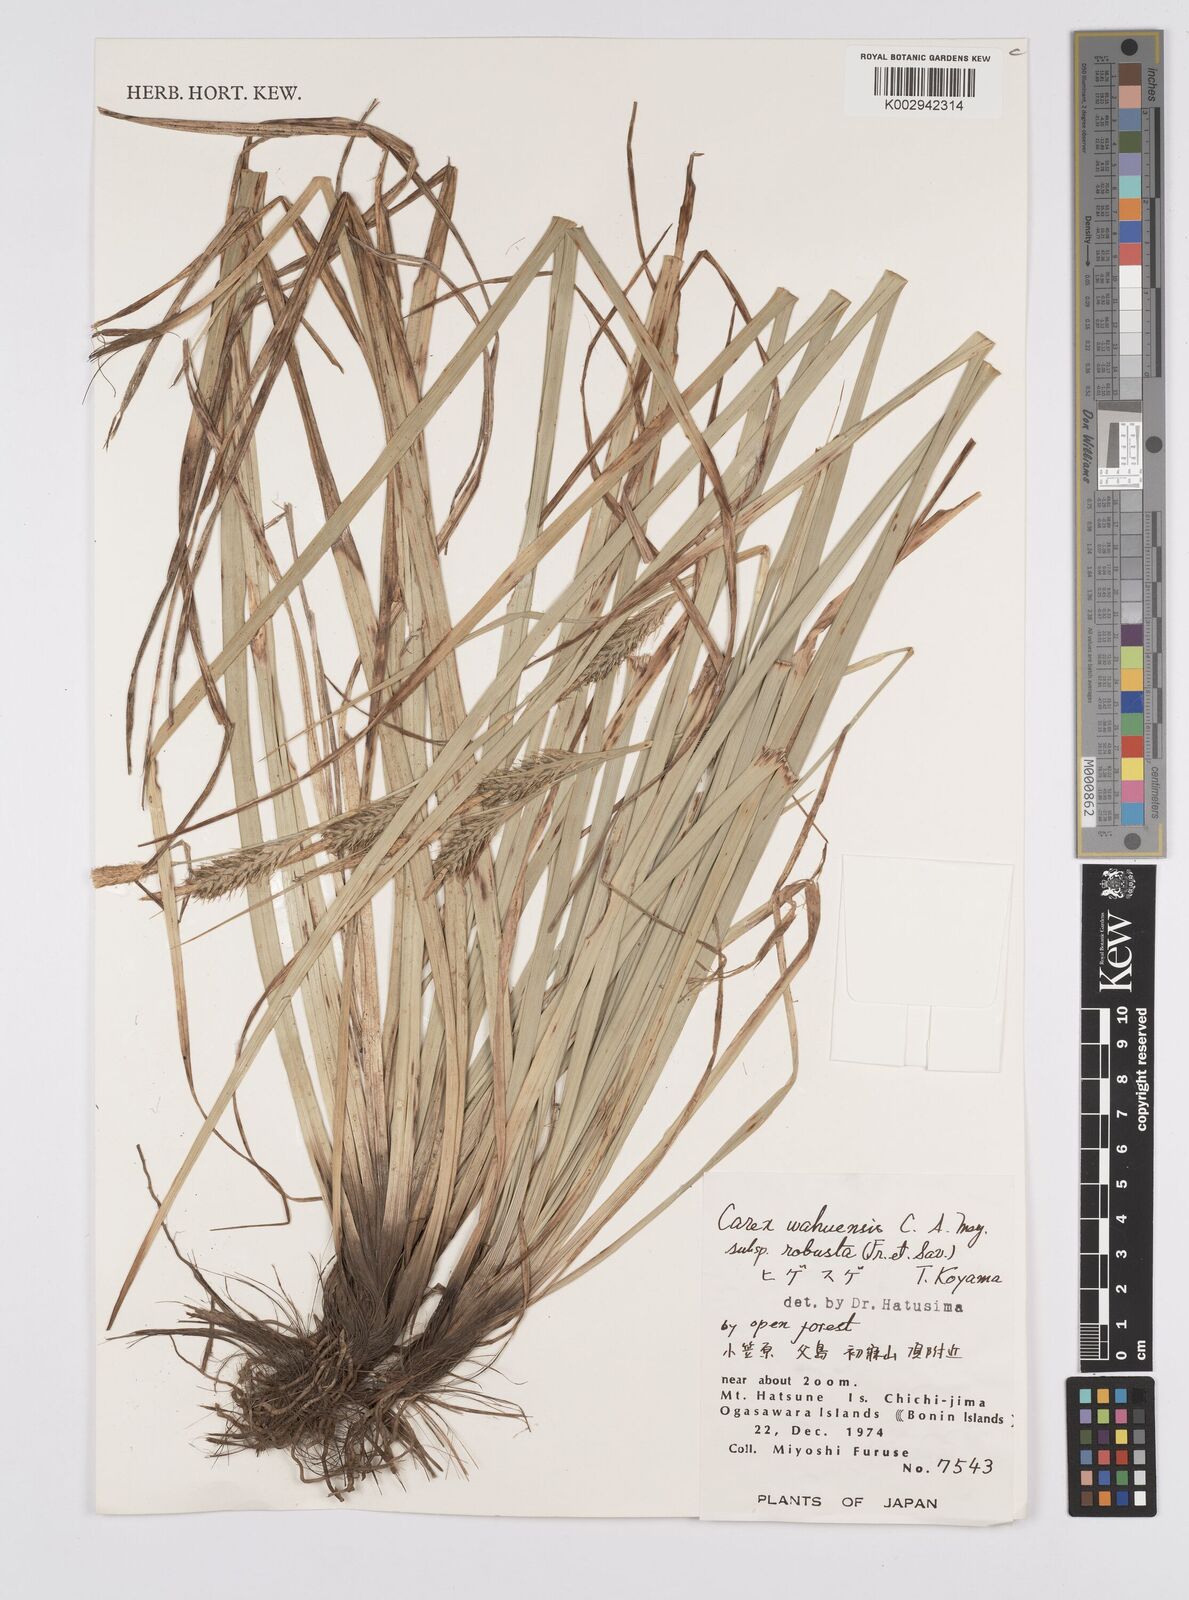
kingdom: Plantae
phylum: Tracheophyta
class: Liliopsida
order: Poales
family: Cyperaceae
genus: Carex
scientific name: Carex wahuensis
